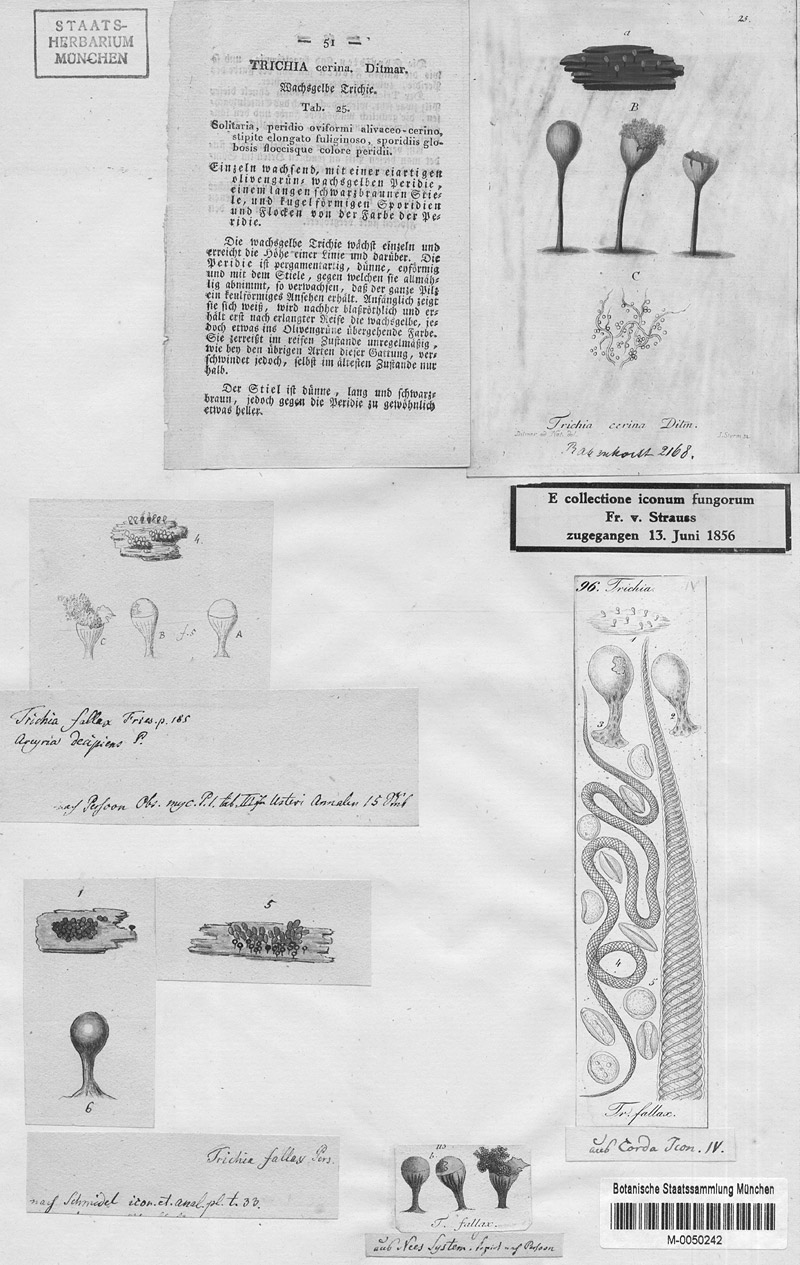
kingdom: Protozoa
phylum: Mycetozoa
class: Myxomycetes
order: Trichiales
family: Arcyriaceae
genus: Hemitrichia
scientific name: Hemitrichia decipiens
